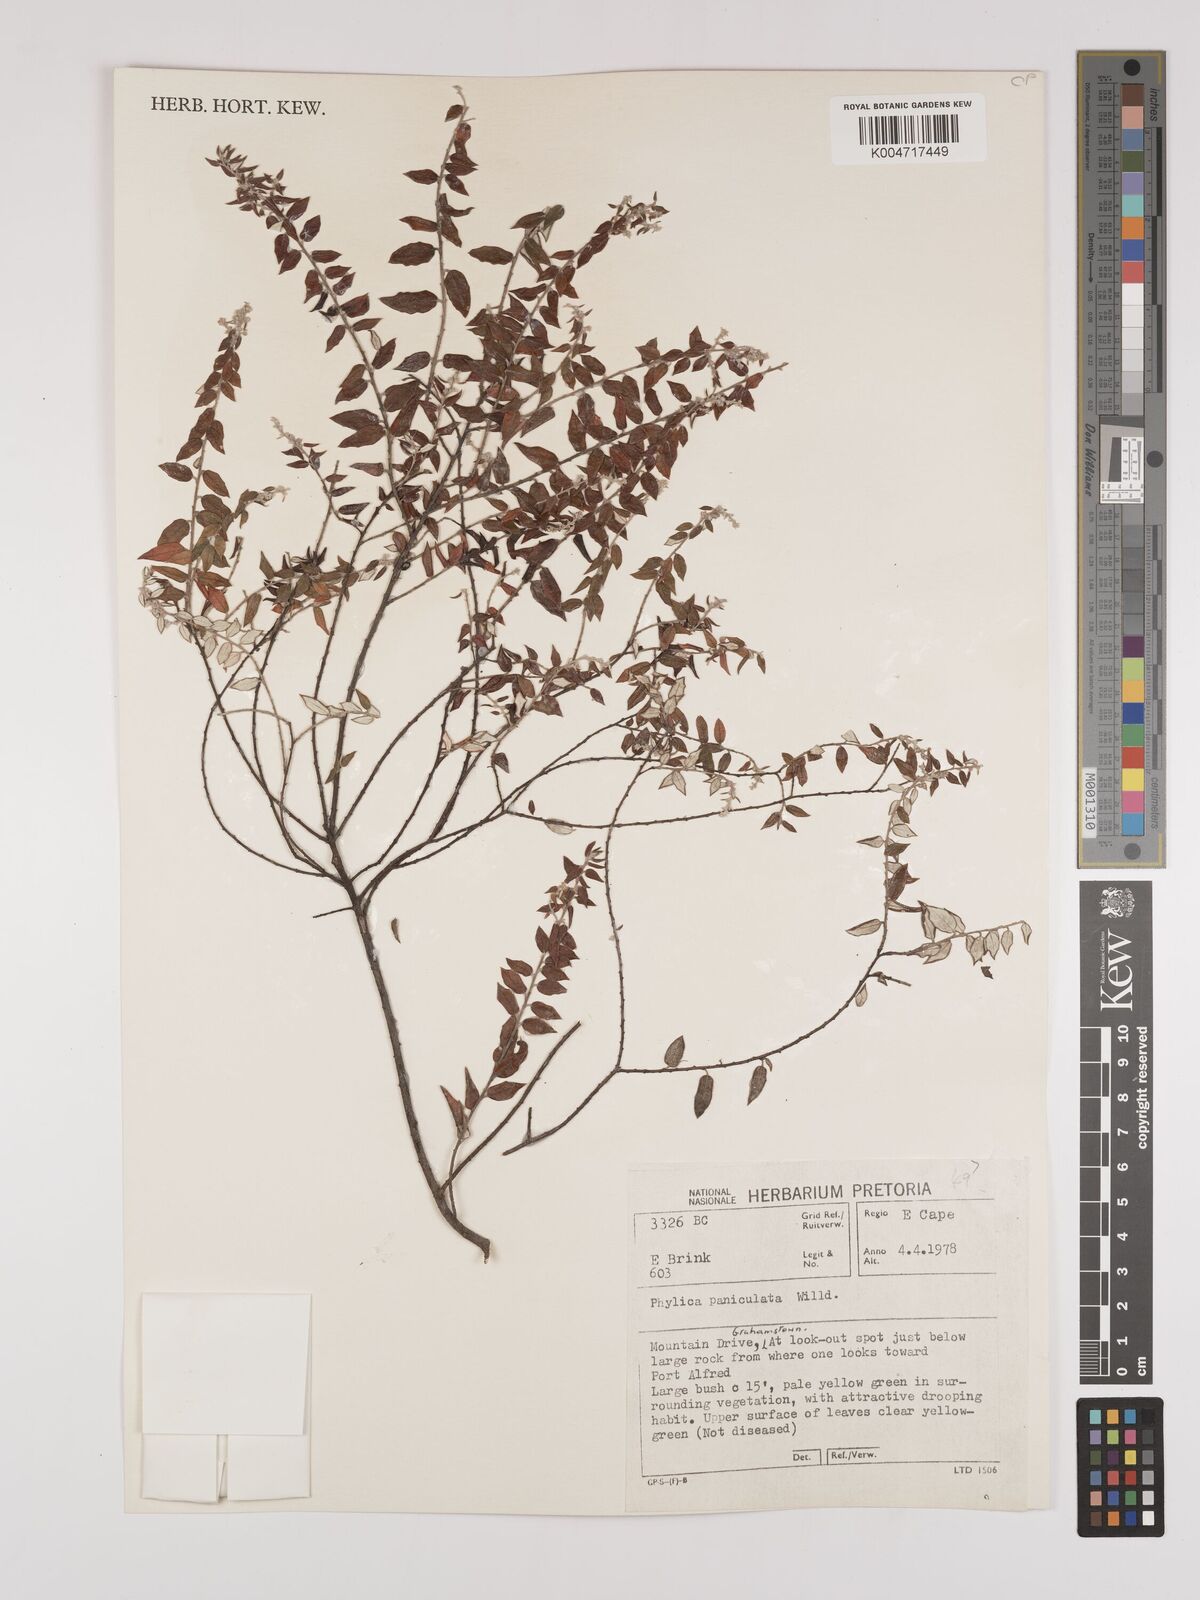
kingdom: Plantae
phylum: Tracheophyta
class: Magnoliopsida
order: Rosales
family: Rhamnaceae
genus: Phylica
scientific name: Phylica paniculata
